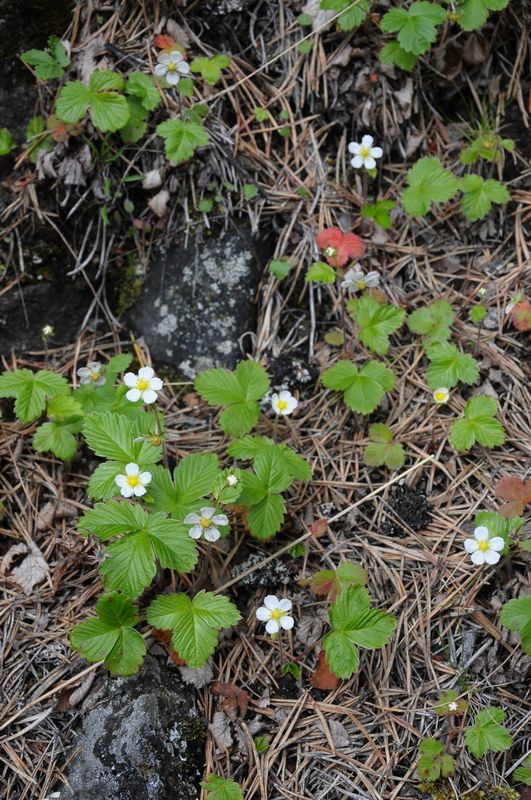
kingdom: Plantae
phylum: Tracheophyta
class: Magnoliopsida
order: Rosales
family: Rosaceae
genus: Fragaria
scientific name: Fragaria vesca
